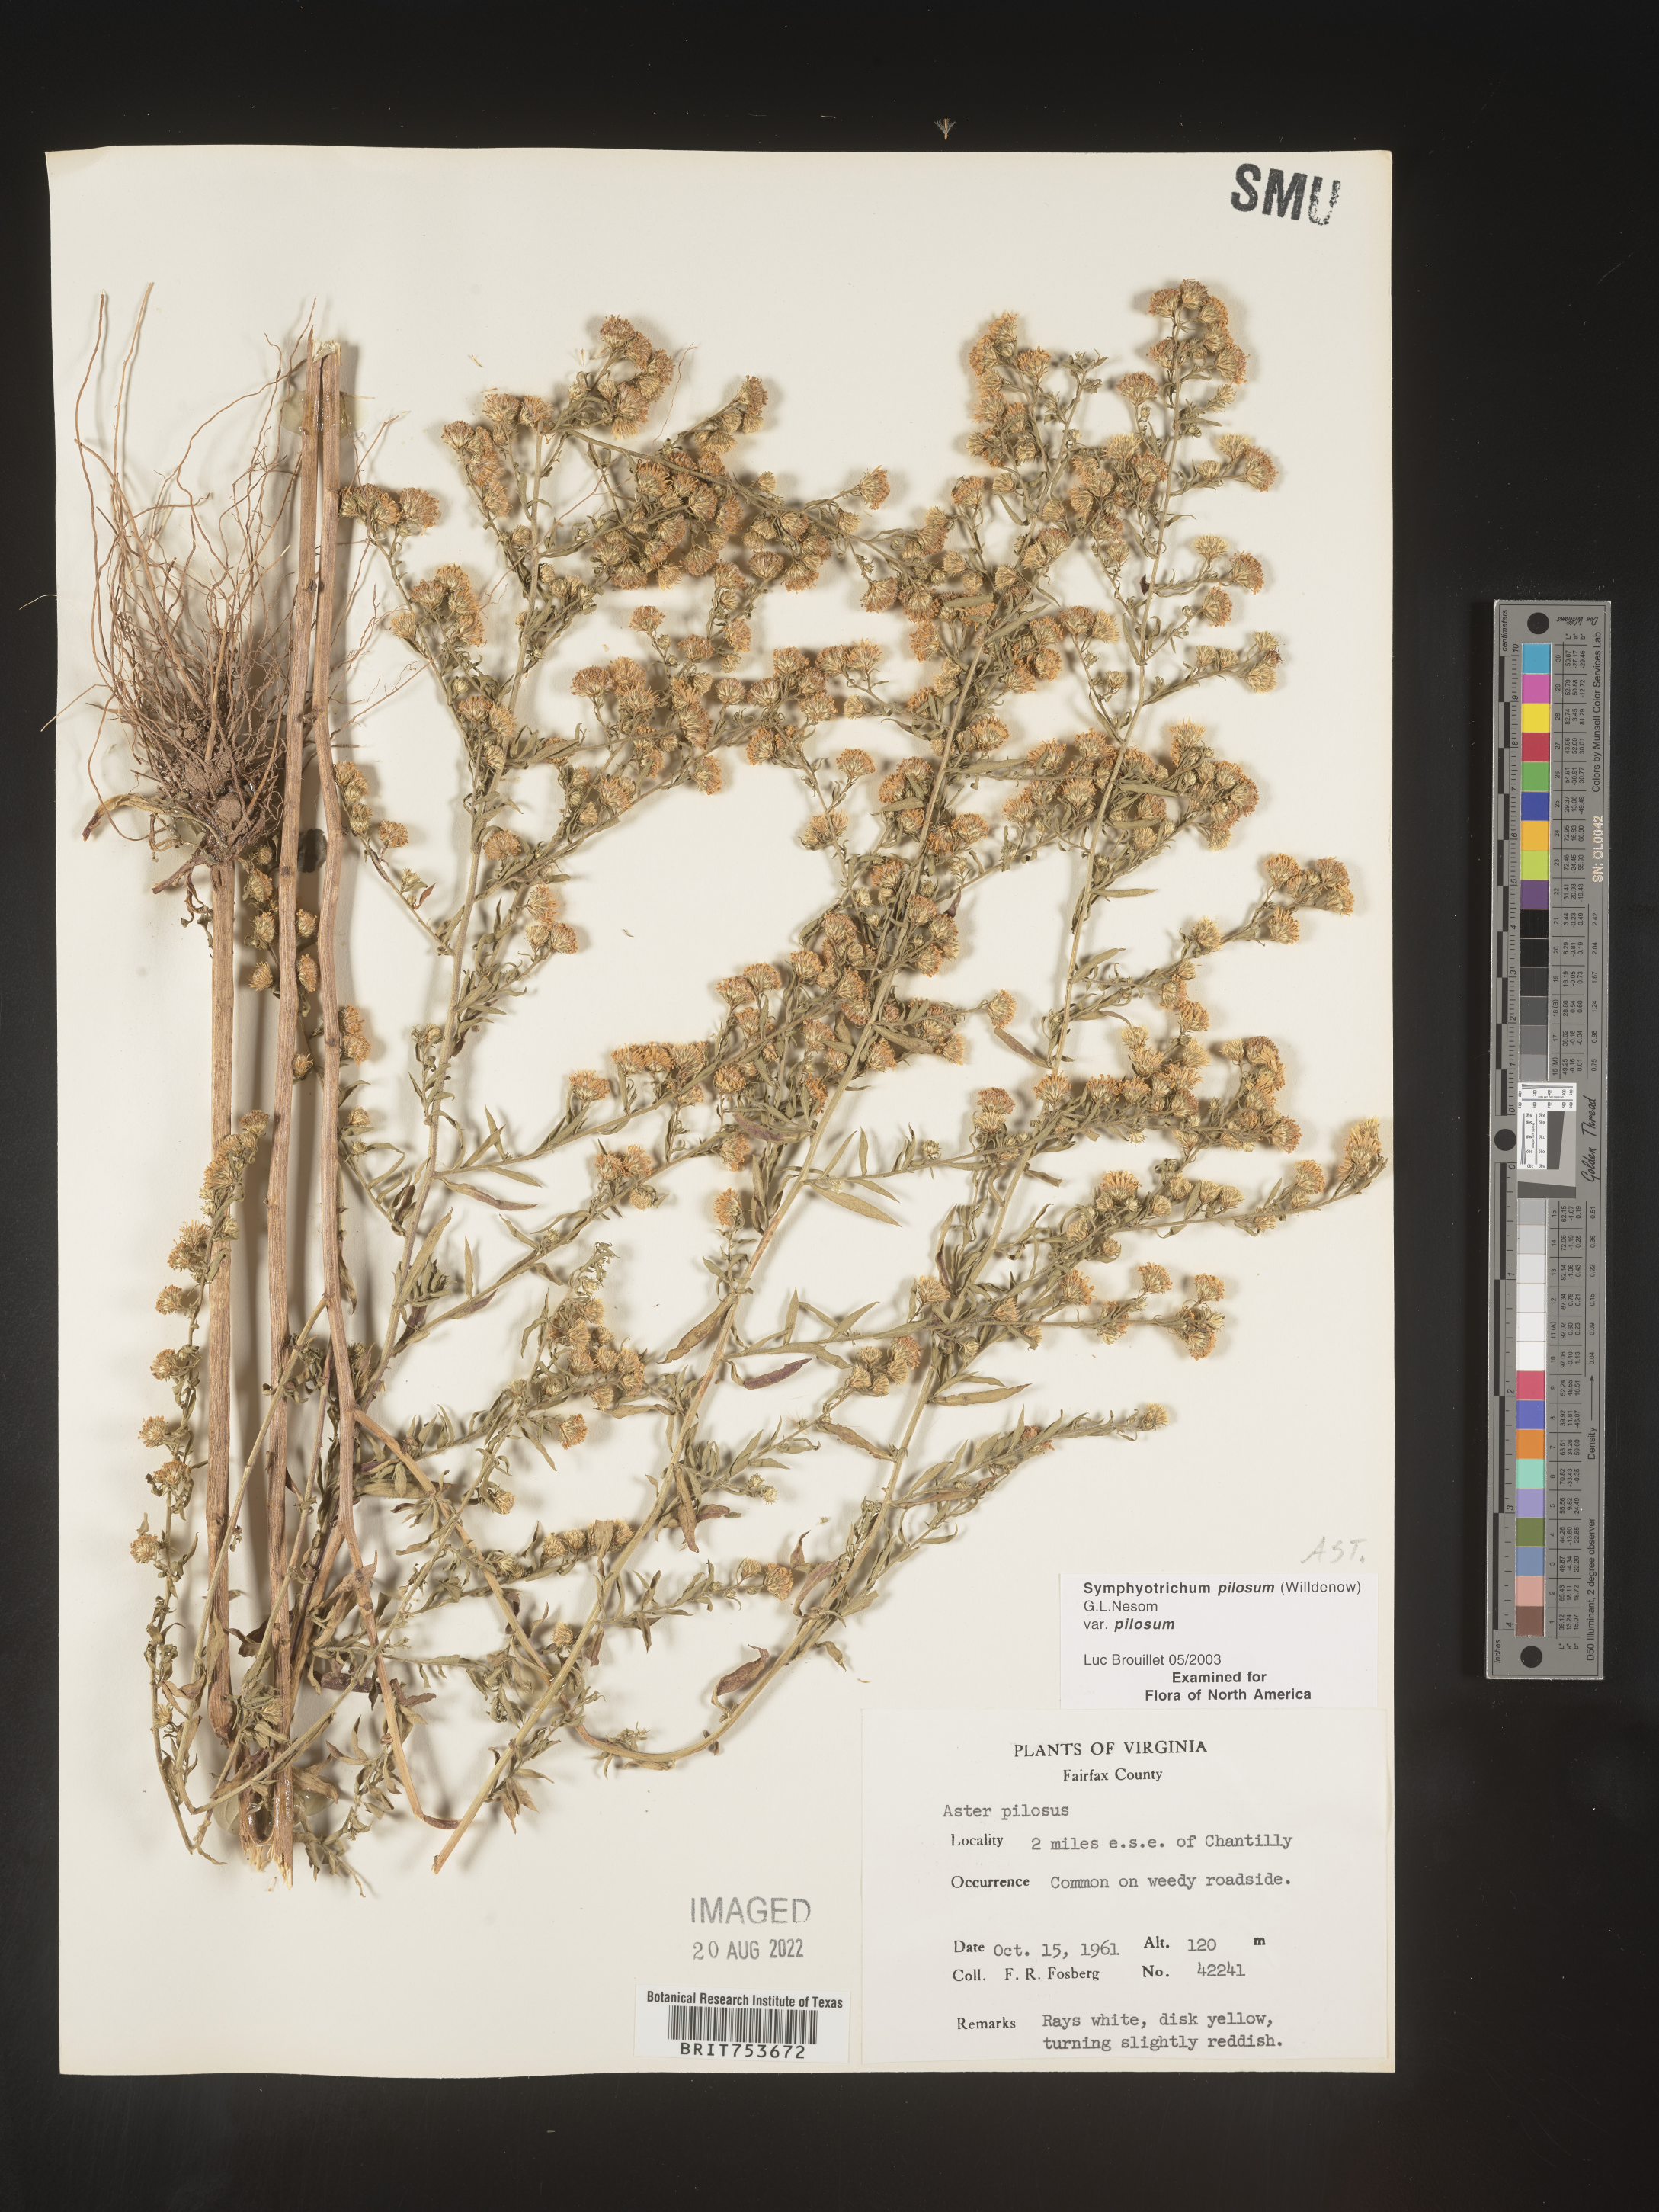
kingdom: Plantae
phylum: Tracheophyta
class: Magnoliopsida
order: Asterales
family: Asteraceae
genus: Symphyotrichum
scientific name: Symphyotrichum pilosum
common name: Awl aster
